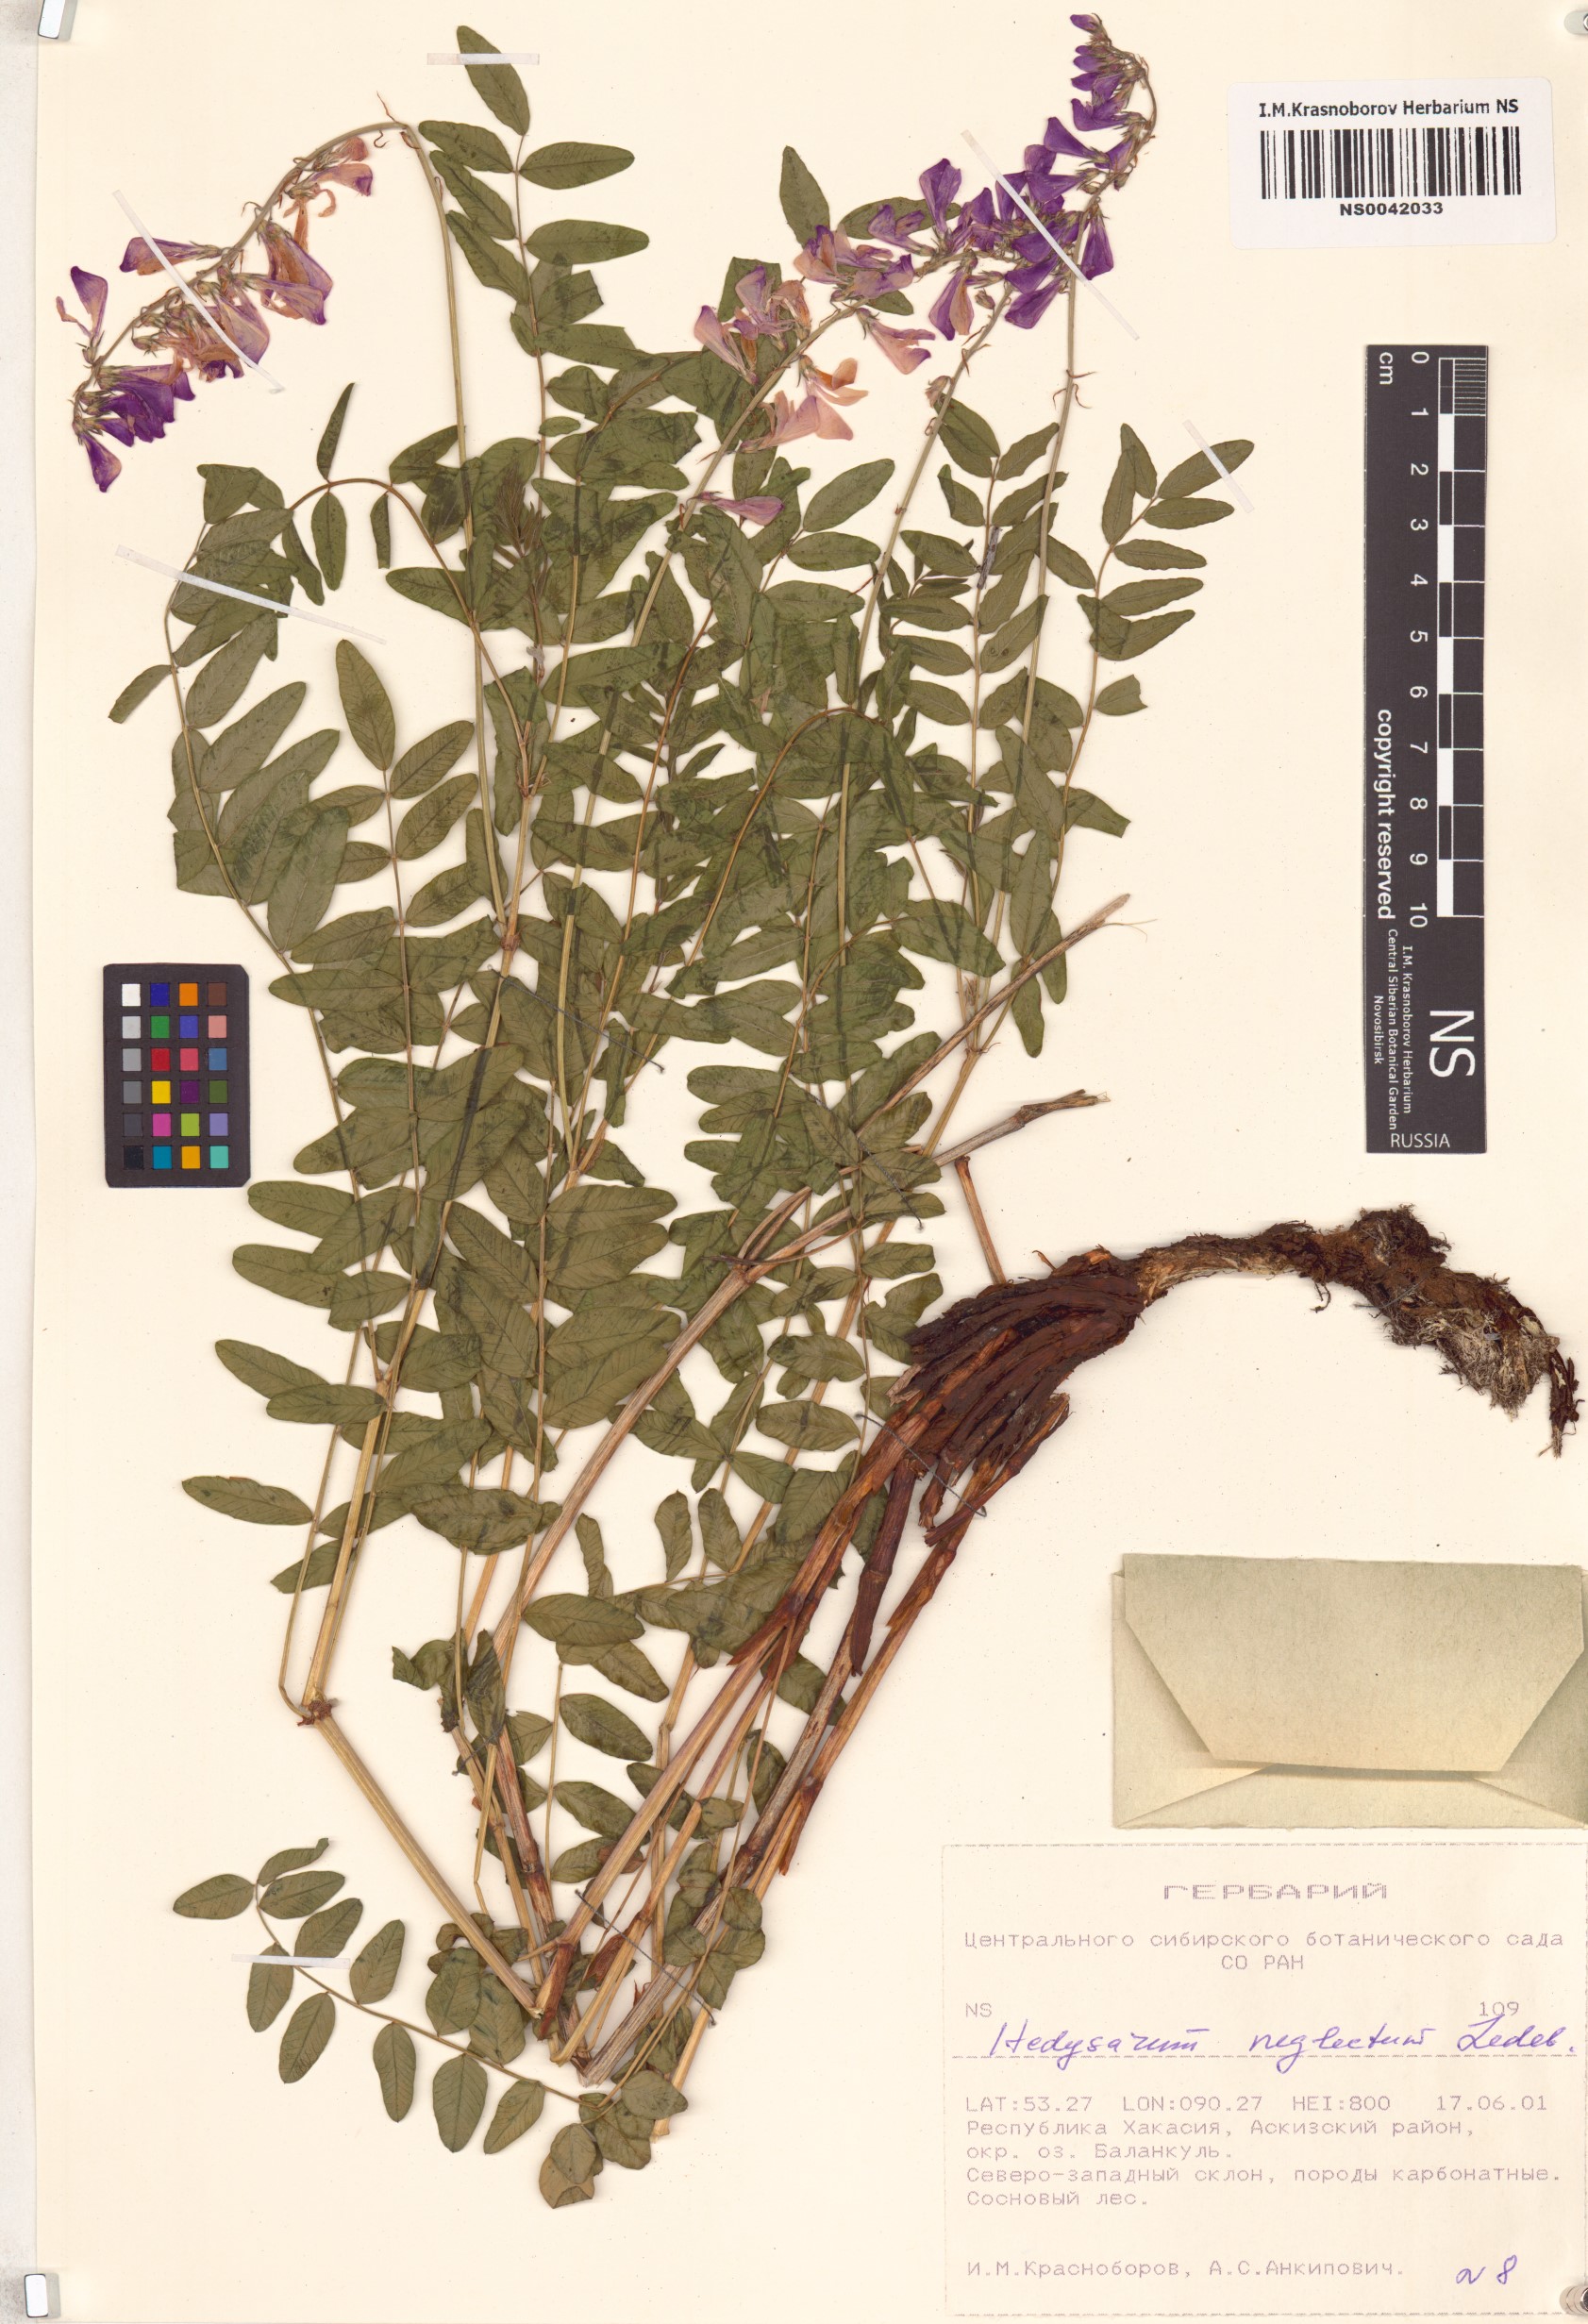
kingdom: Plantae
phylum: Tracheophyta
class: Magnoliopsida
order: Fabales
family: Fabaceae
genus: Hedysarum
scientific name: Hedysarum neglectum
